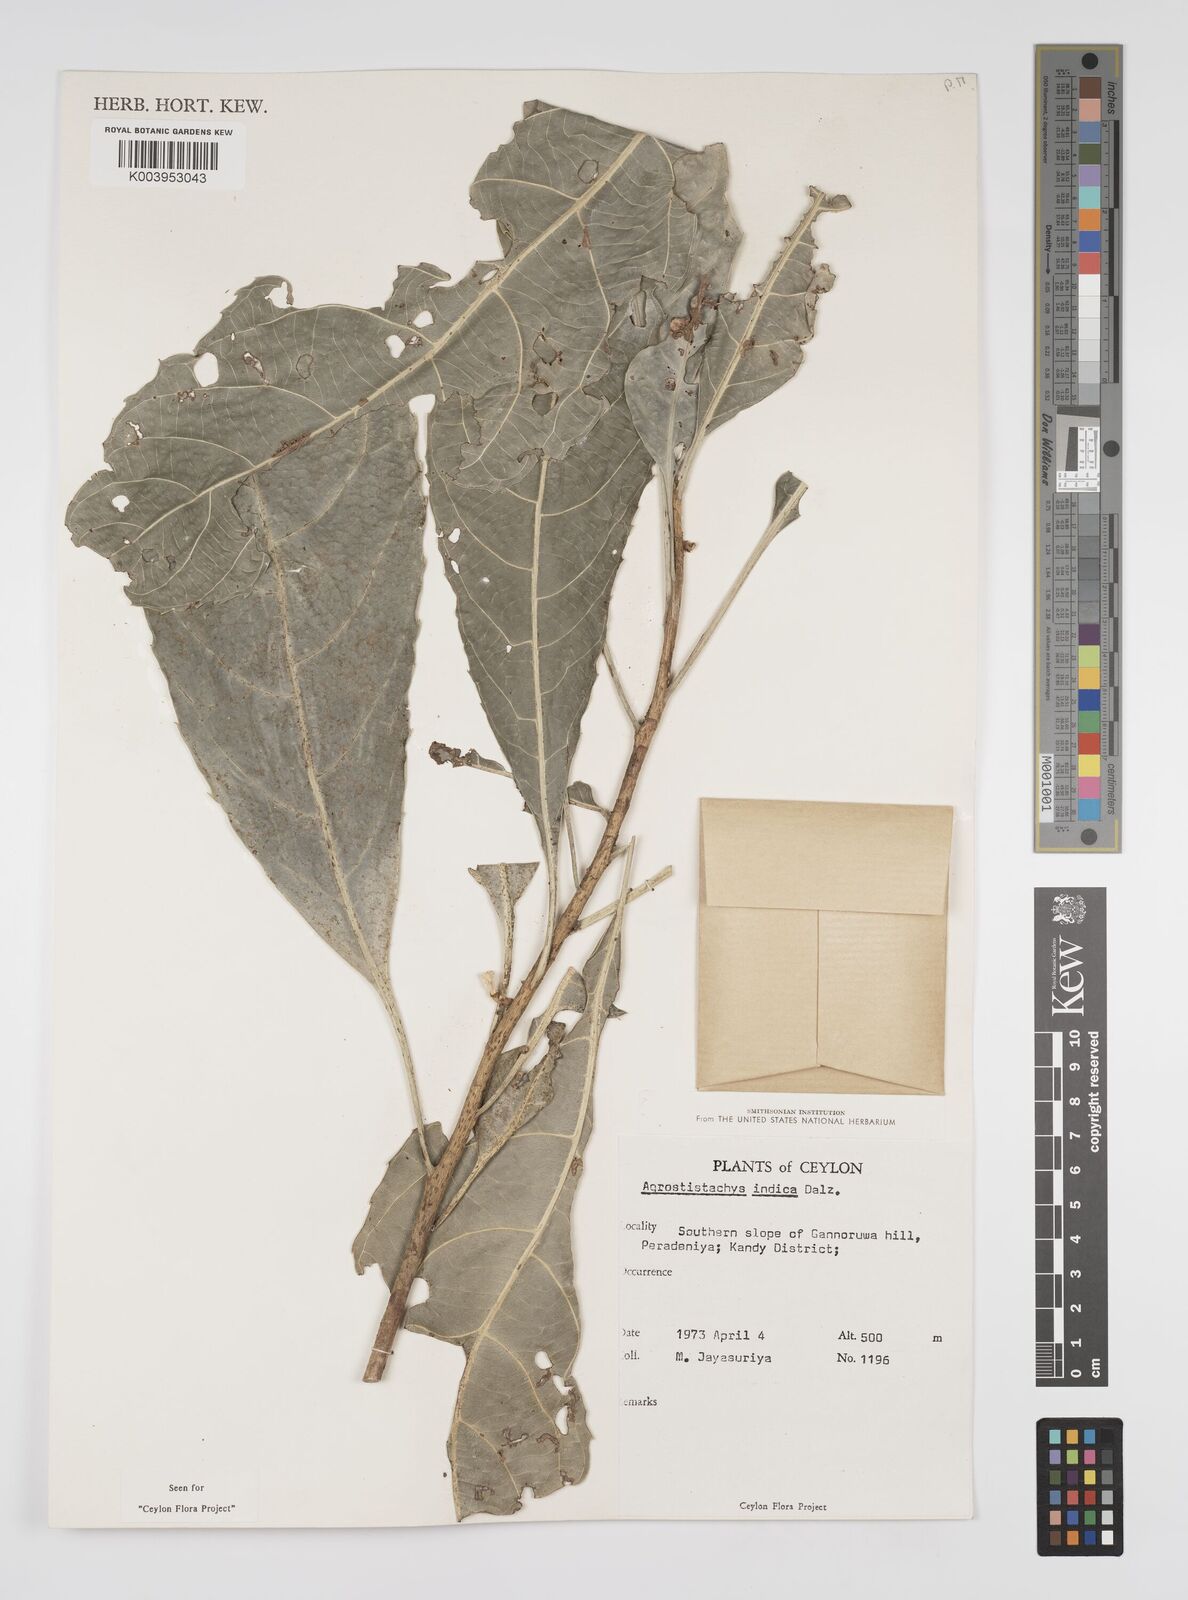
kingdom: Plantae
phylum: Tracheophyta
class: Magnoliopsida
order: Malpighiales
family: Euphorbiaceae
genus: Agrostistachys
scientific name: Agrostistachys indica
